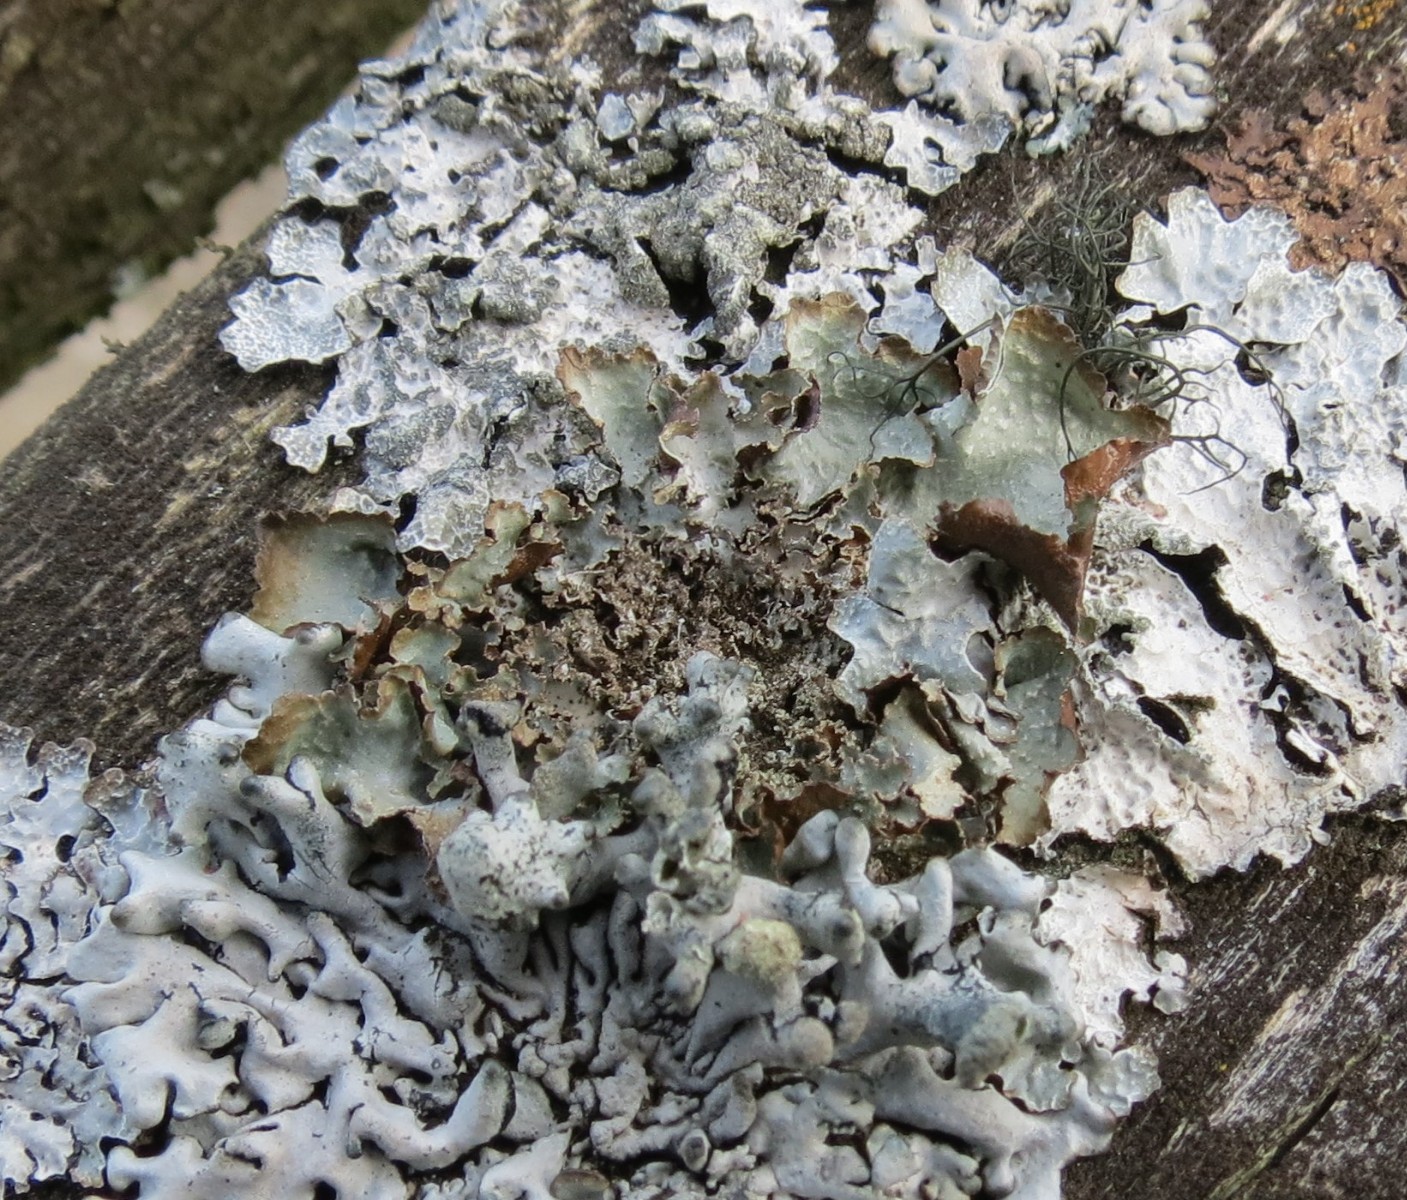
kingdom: Fungi
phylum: Ascomycota
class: Lecanoromycetes
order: Lecanorales
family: Parmeliaceae
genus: Platismatia
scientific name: Platismatia glauca
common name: blågrå papirlav
